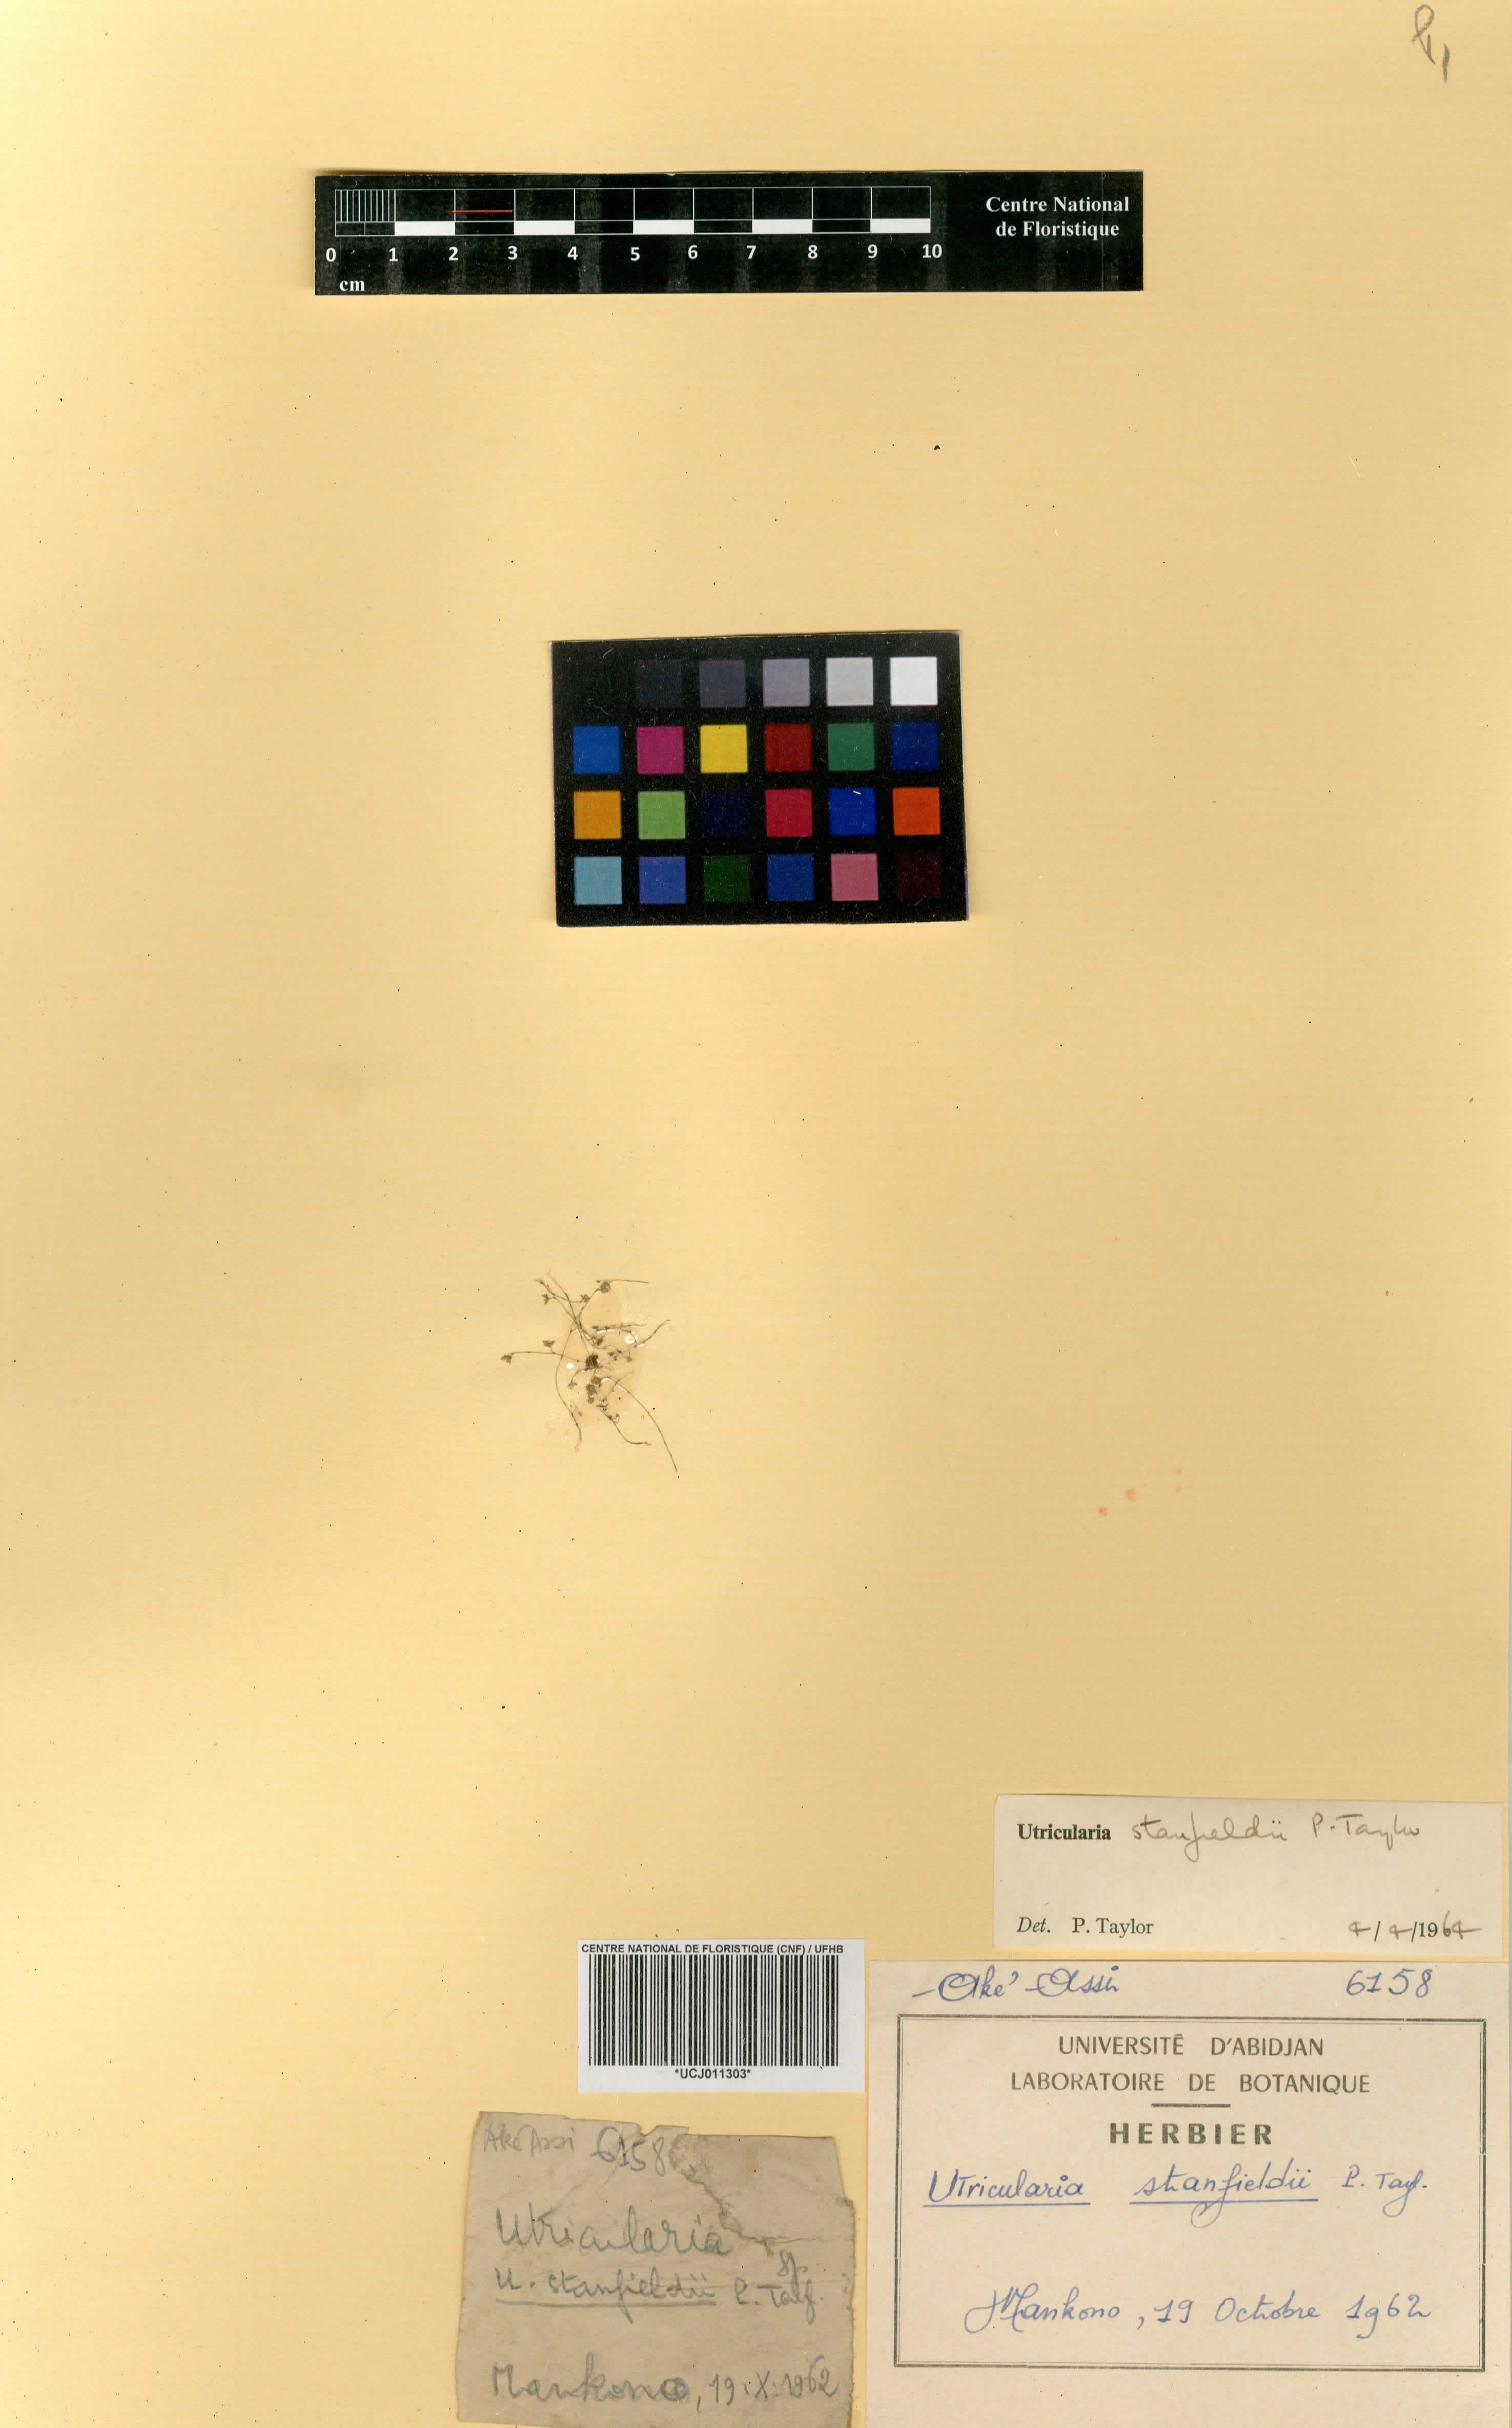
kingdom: Plantae
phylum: Tracheophyta
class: Magnoliopsida
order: Lamiales
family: Lentibulariaceae
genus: Utricularia
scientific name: Utricularia striatula
